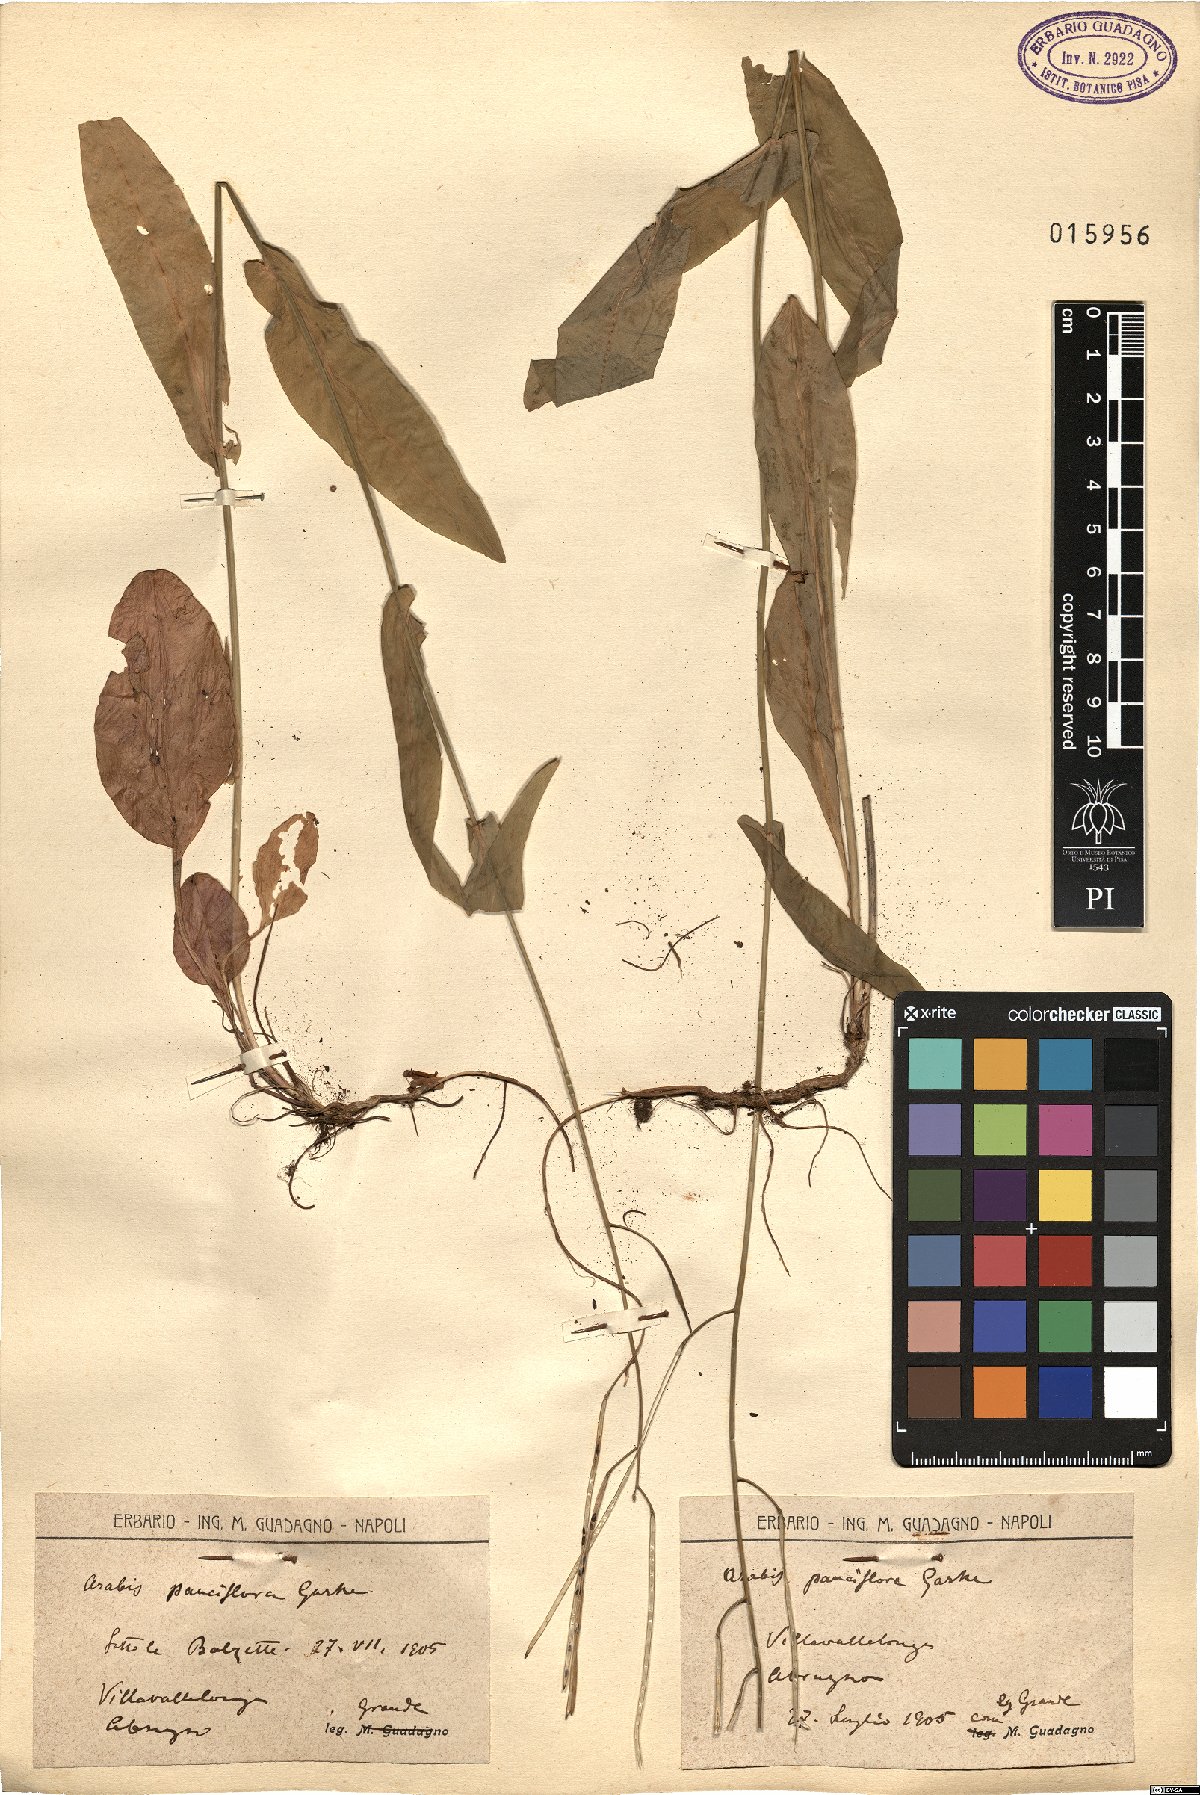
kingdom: Plantae
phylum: Tracheophyta
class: Magnoliopsida
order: Brassicales
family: Brassicaceae
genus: Fourraea
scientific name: Fourraea alpina
